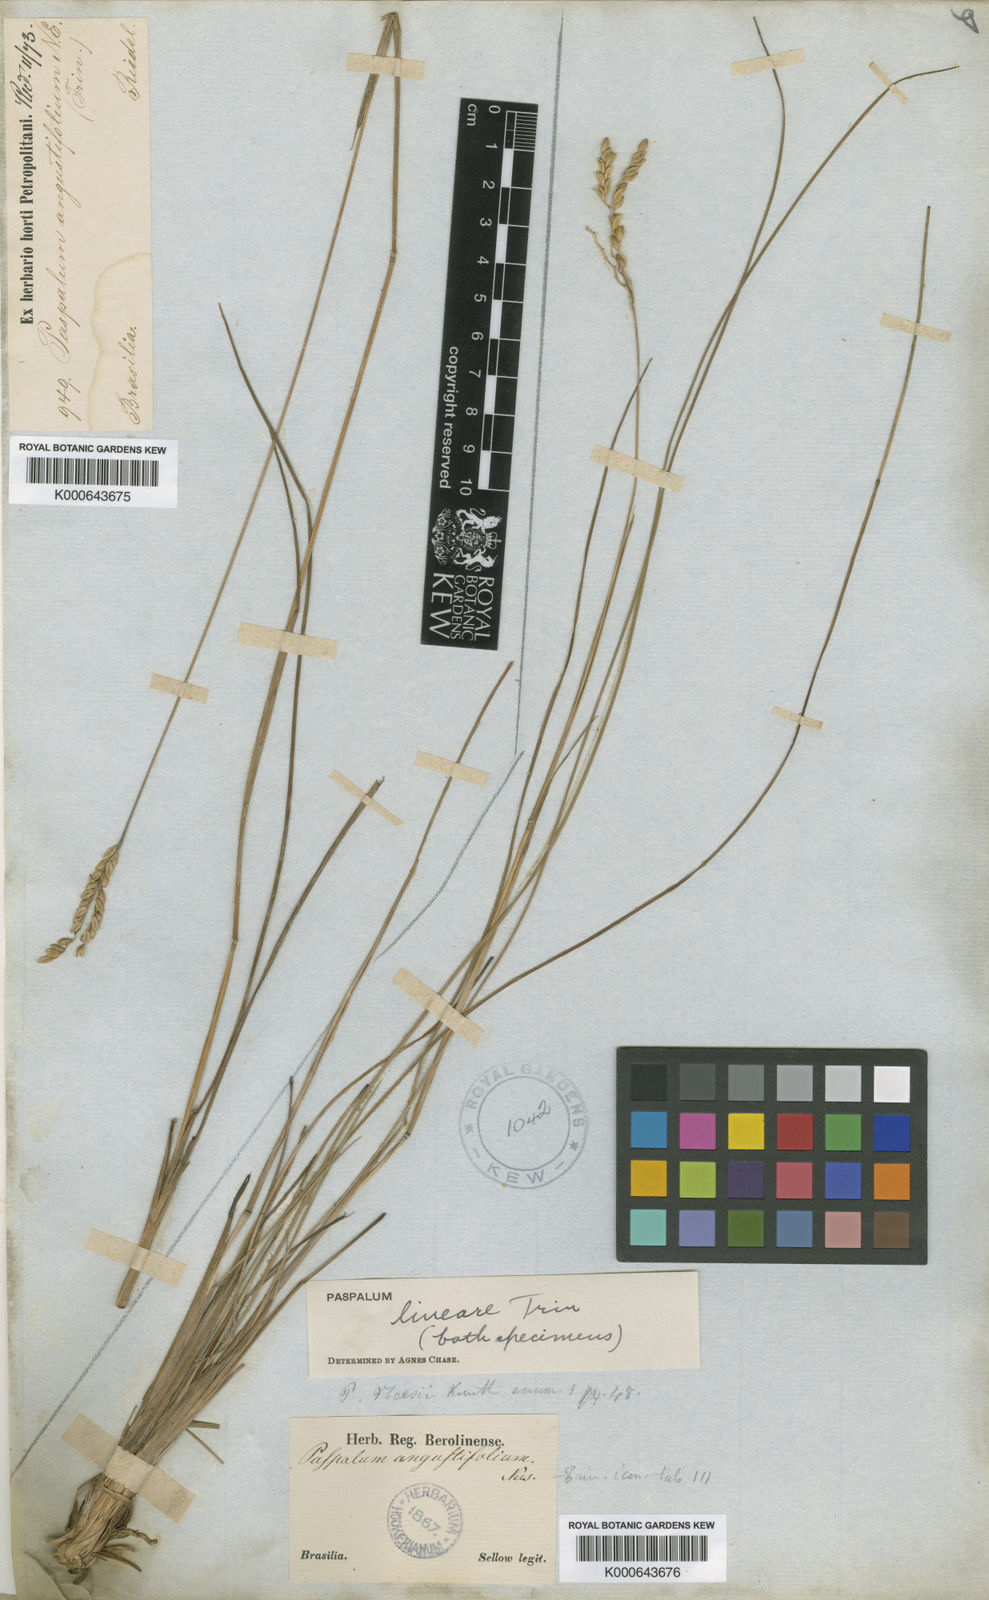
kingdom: Plantae
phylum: Tracheophyta
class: Liliopsida
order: Poales
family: Poaceae
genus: Paspalum
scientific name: Paspalum lineare
